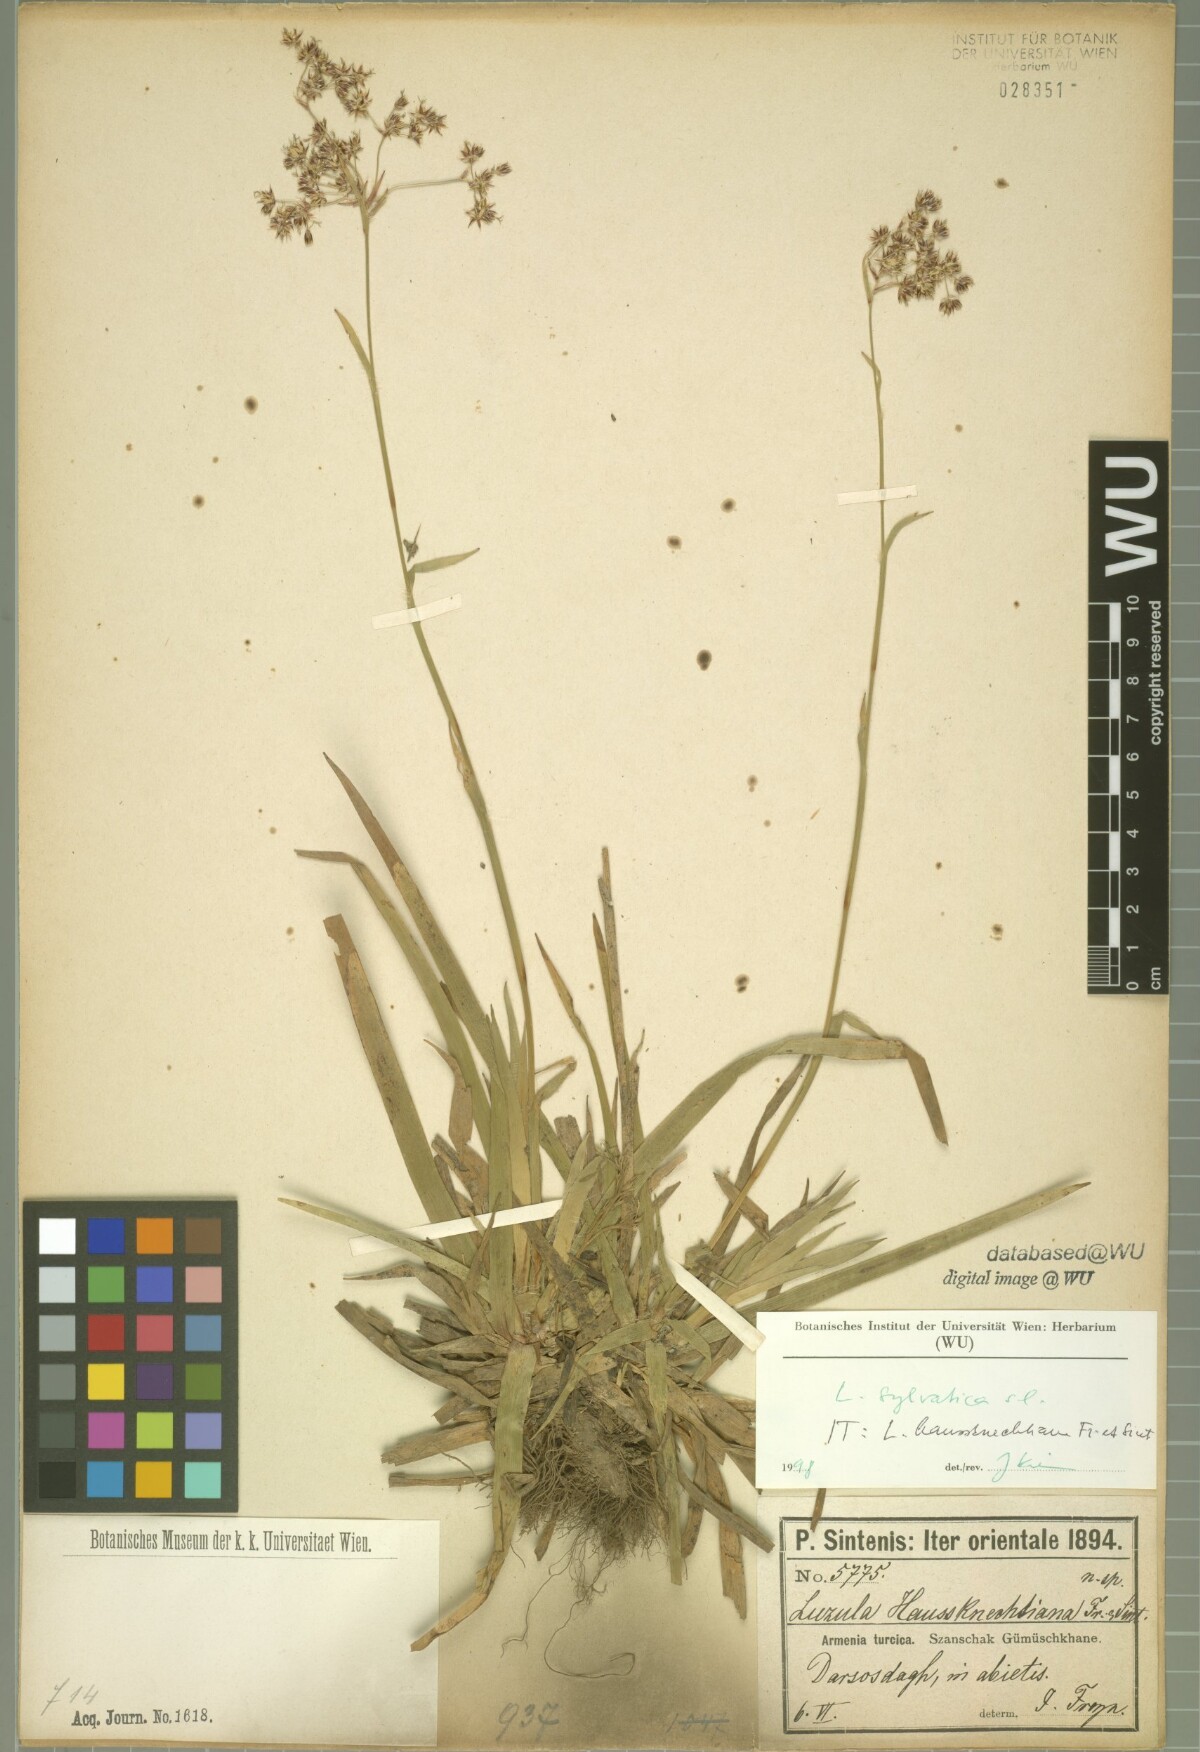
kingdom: Plantae
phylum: Tracheophyta
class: Liliopsida
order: Poales
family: Juncaceae
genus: Luzula
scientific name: Luzula sylvatica
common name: Great wood-rush
